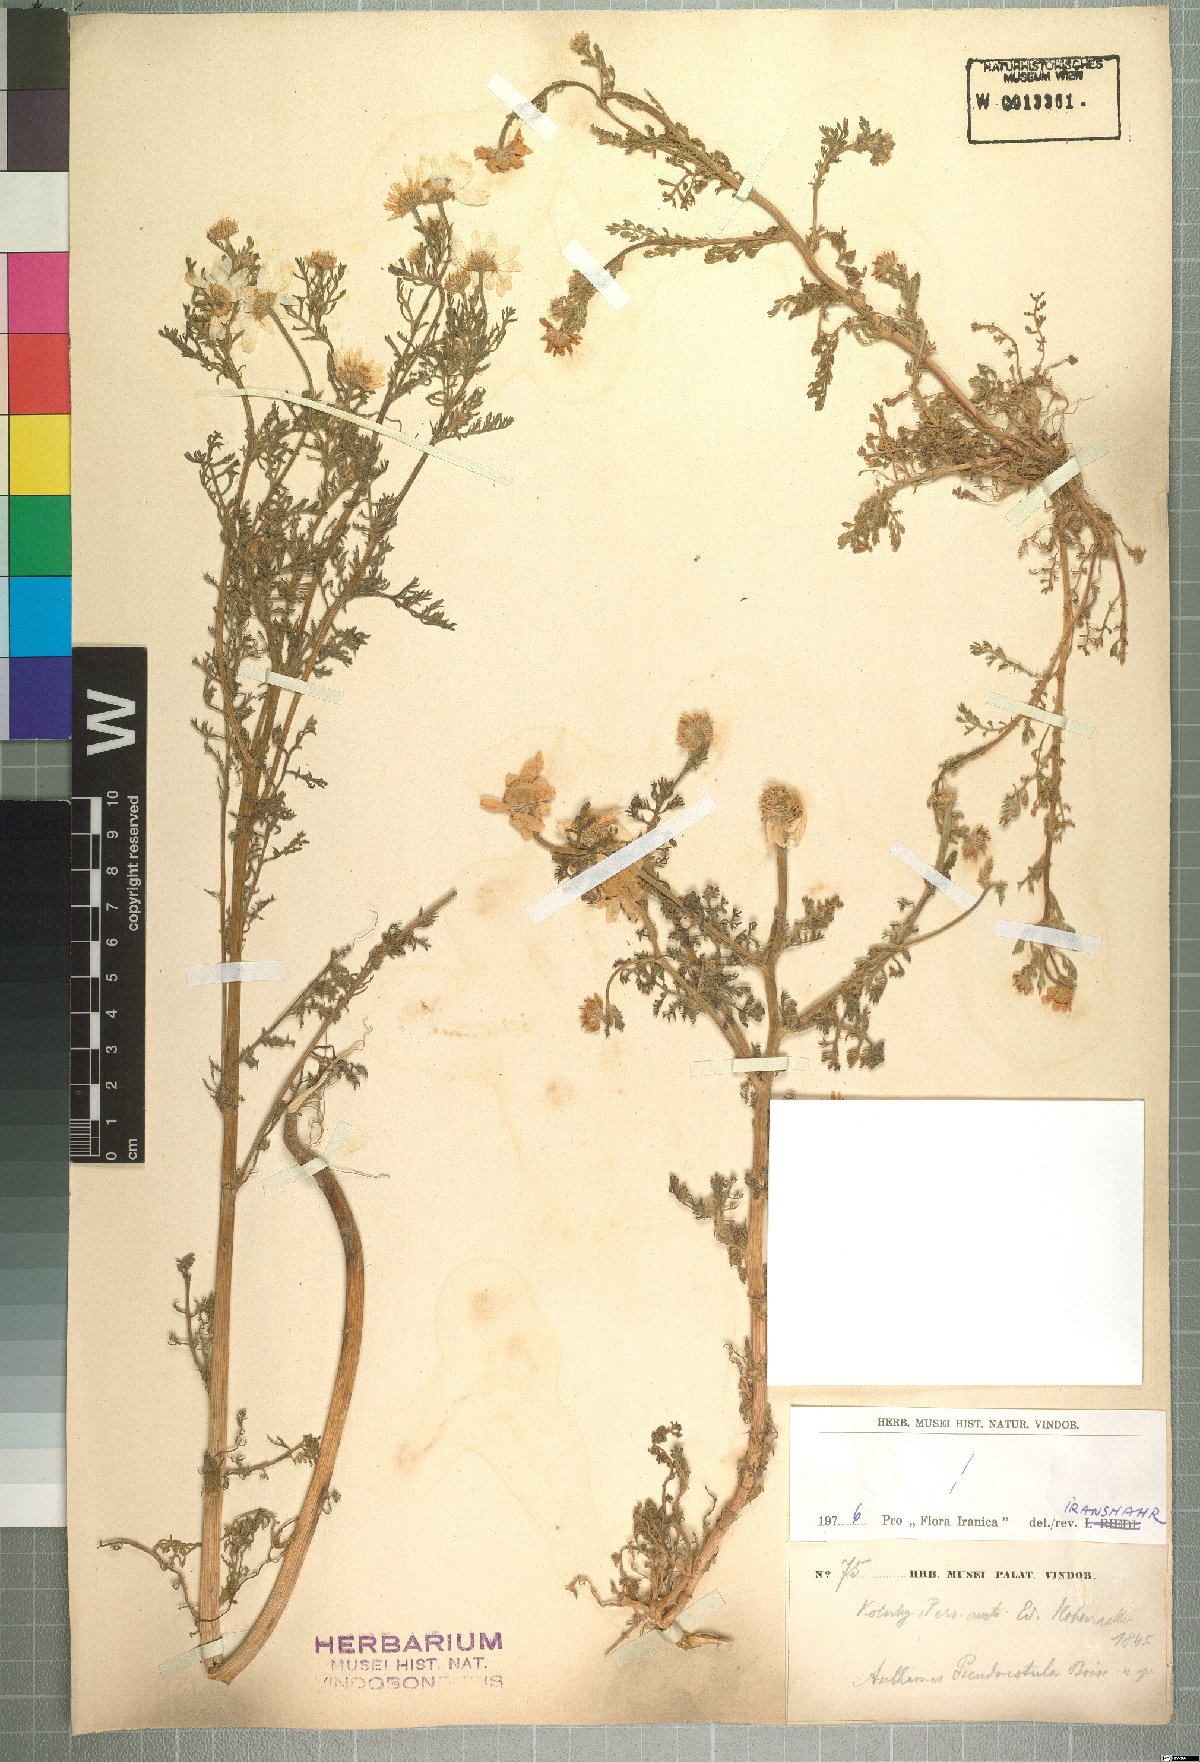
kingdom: Plantae
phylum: Tracheophyta
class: Magnoliopsida
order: Asterales
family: Asteraceae
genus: Anthemis
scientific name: Anthemis pseudocotula
